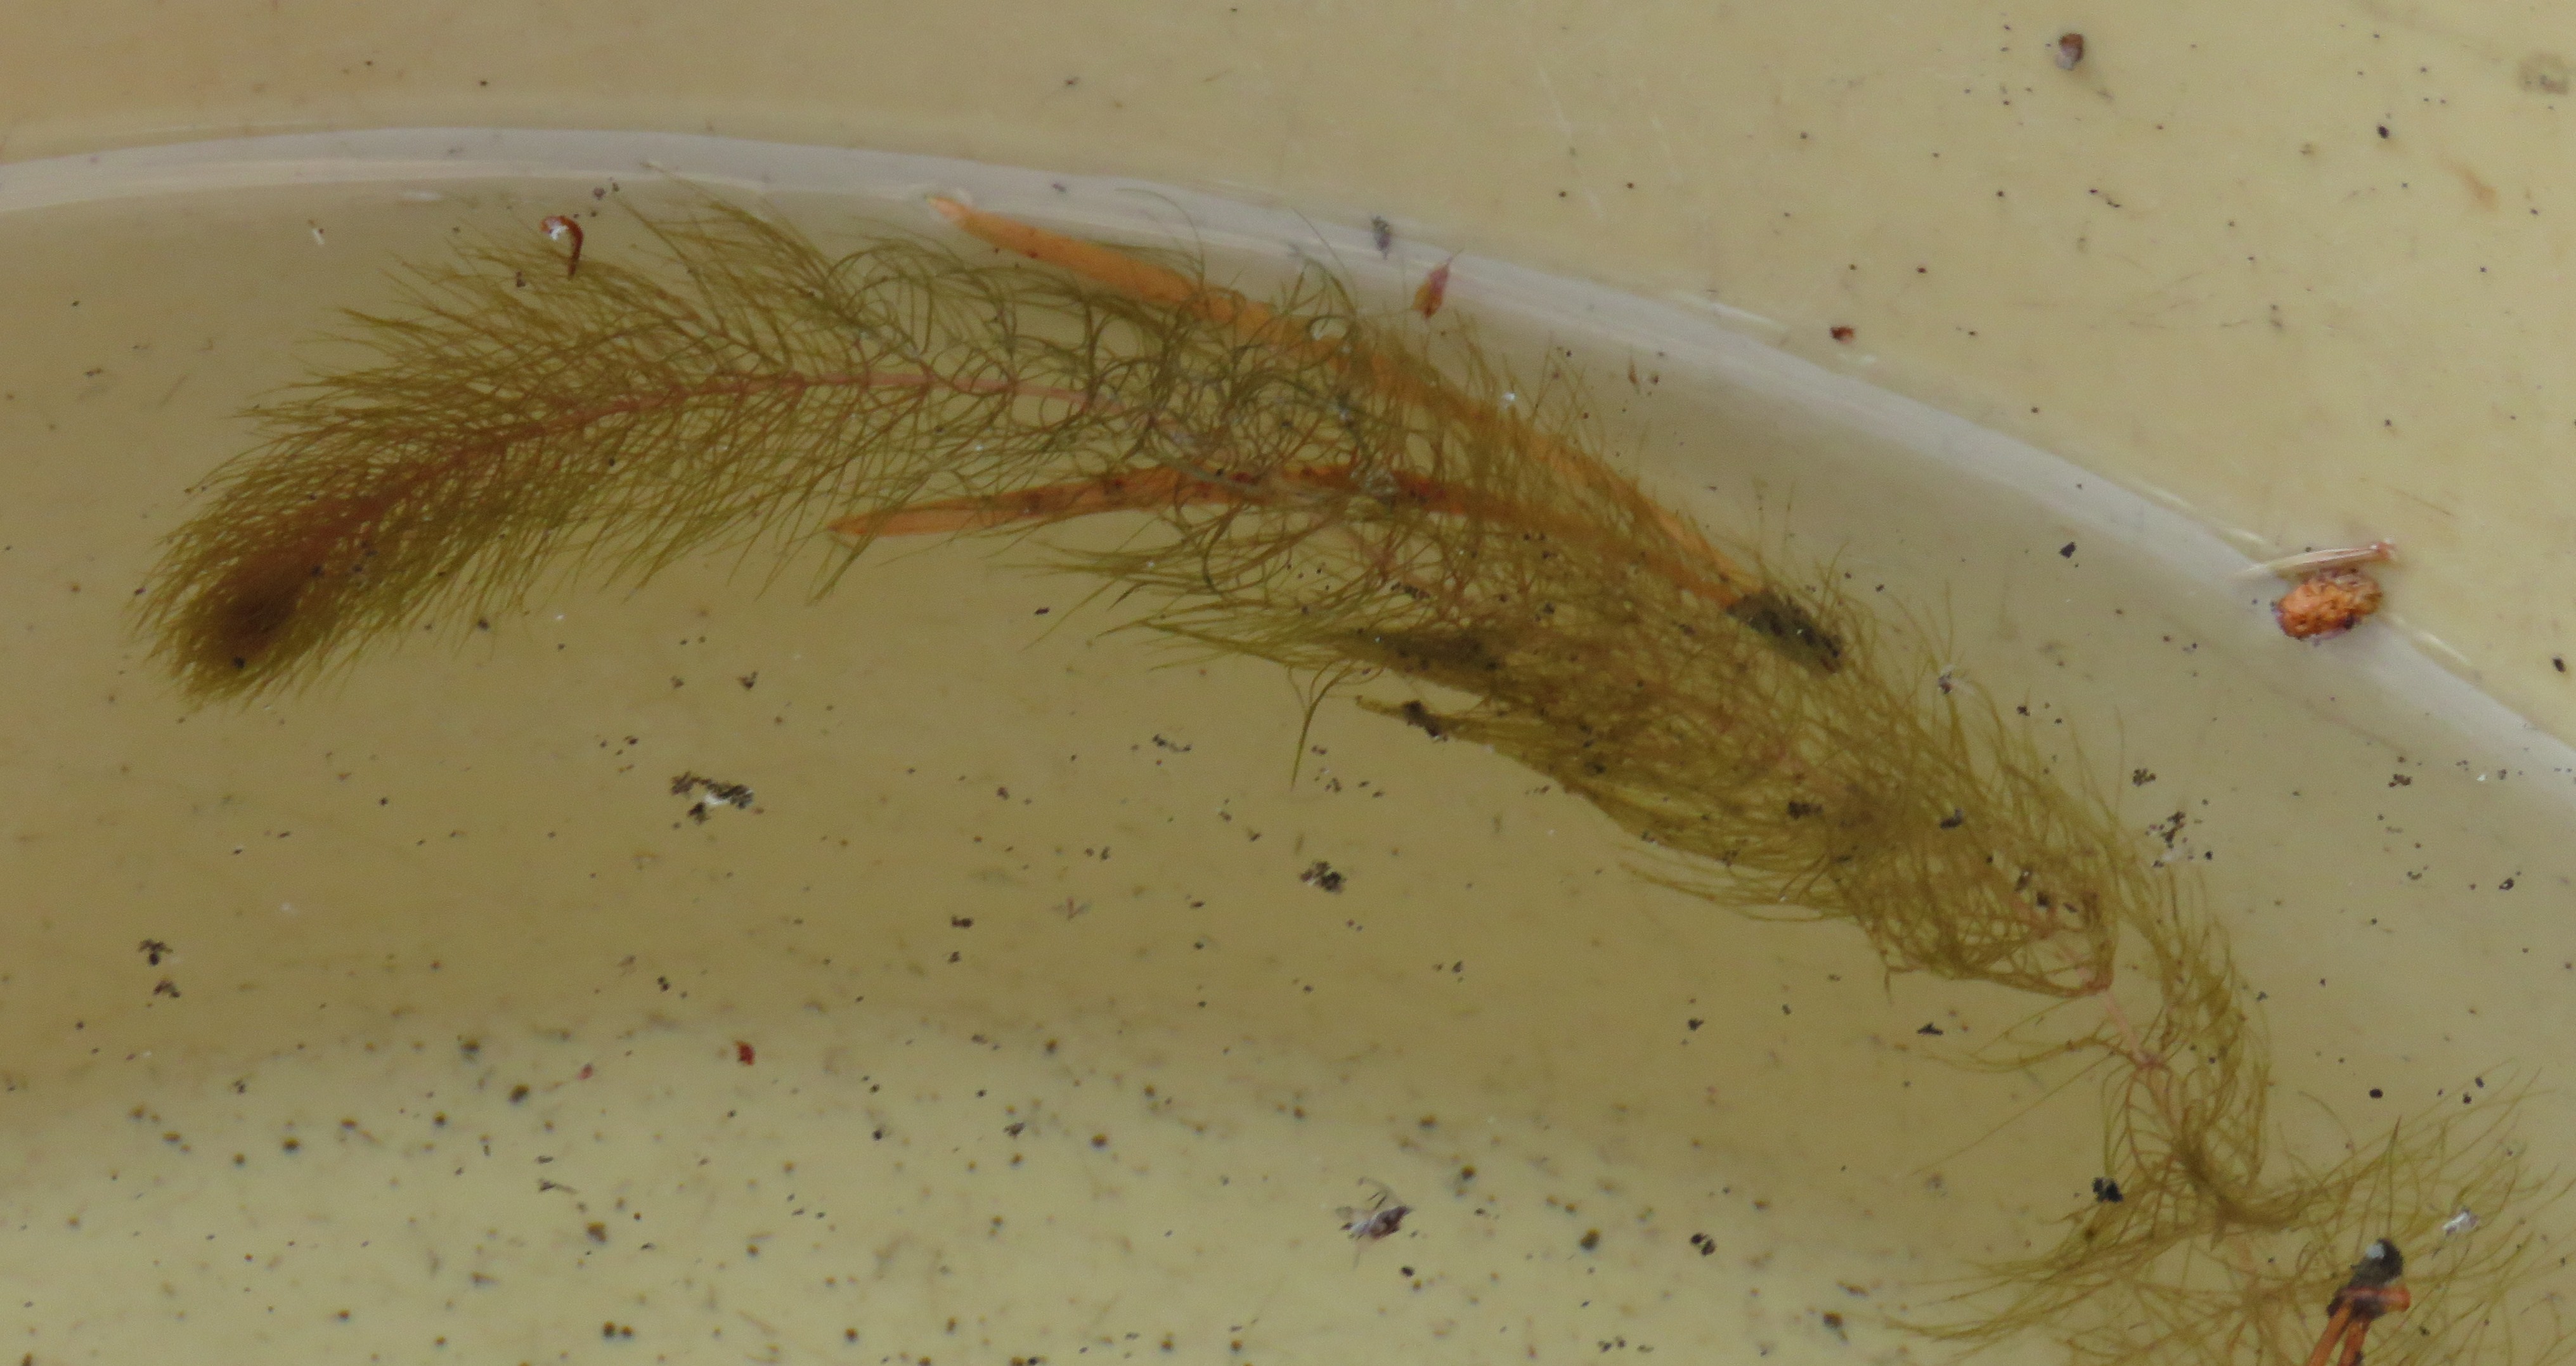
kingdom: Plantae
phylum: Tracheophyta
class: Magnoliopsida
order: Saxifragales
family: Haloragaceae
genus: Myriophyllum
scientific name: Myriophyllum
